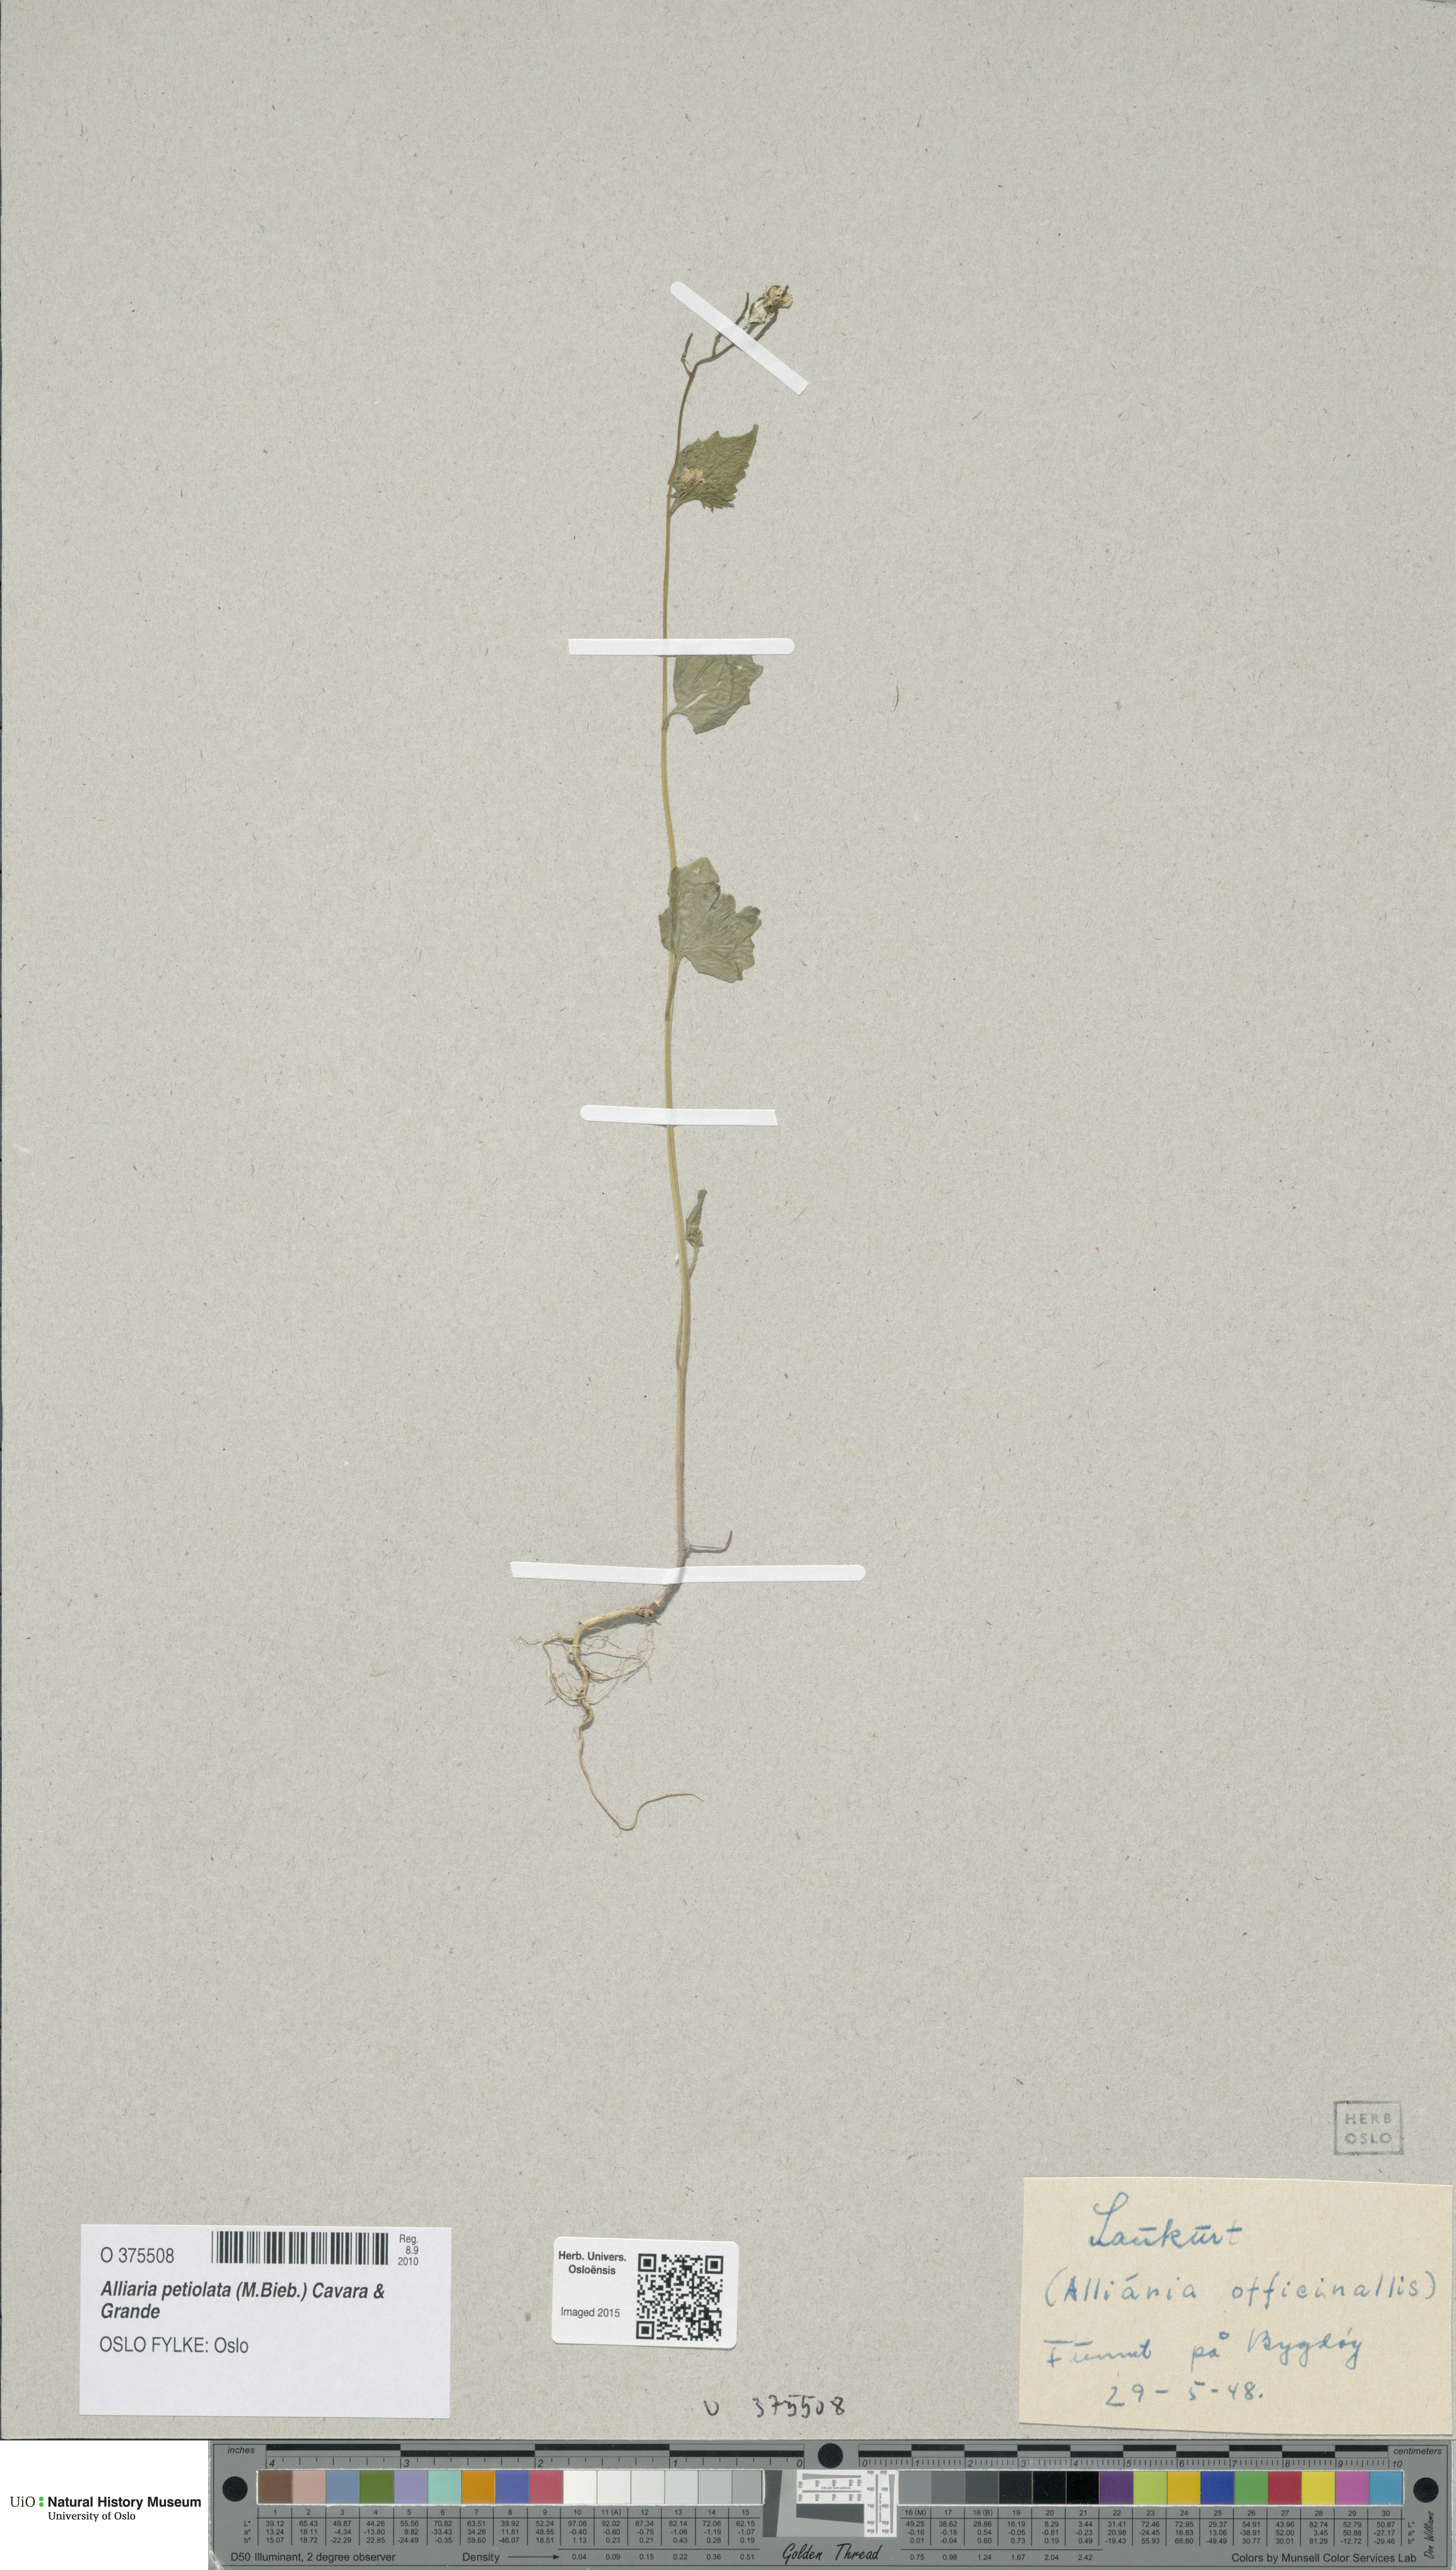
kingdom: Plantae
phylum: Tracheophyta
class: Magnoliopsida
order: Brassicales
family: Brassicaceae
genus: Alliaria
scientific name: Alliaria petiolata
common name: Garlic mustard
